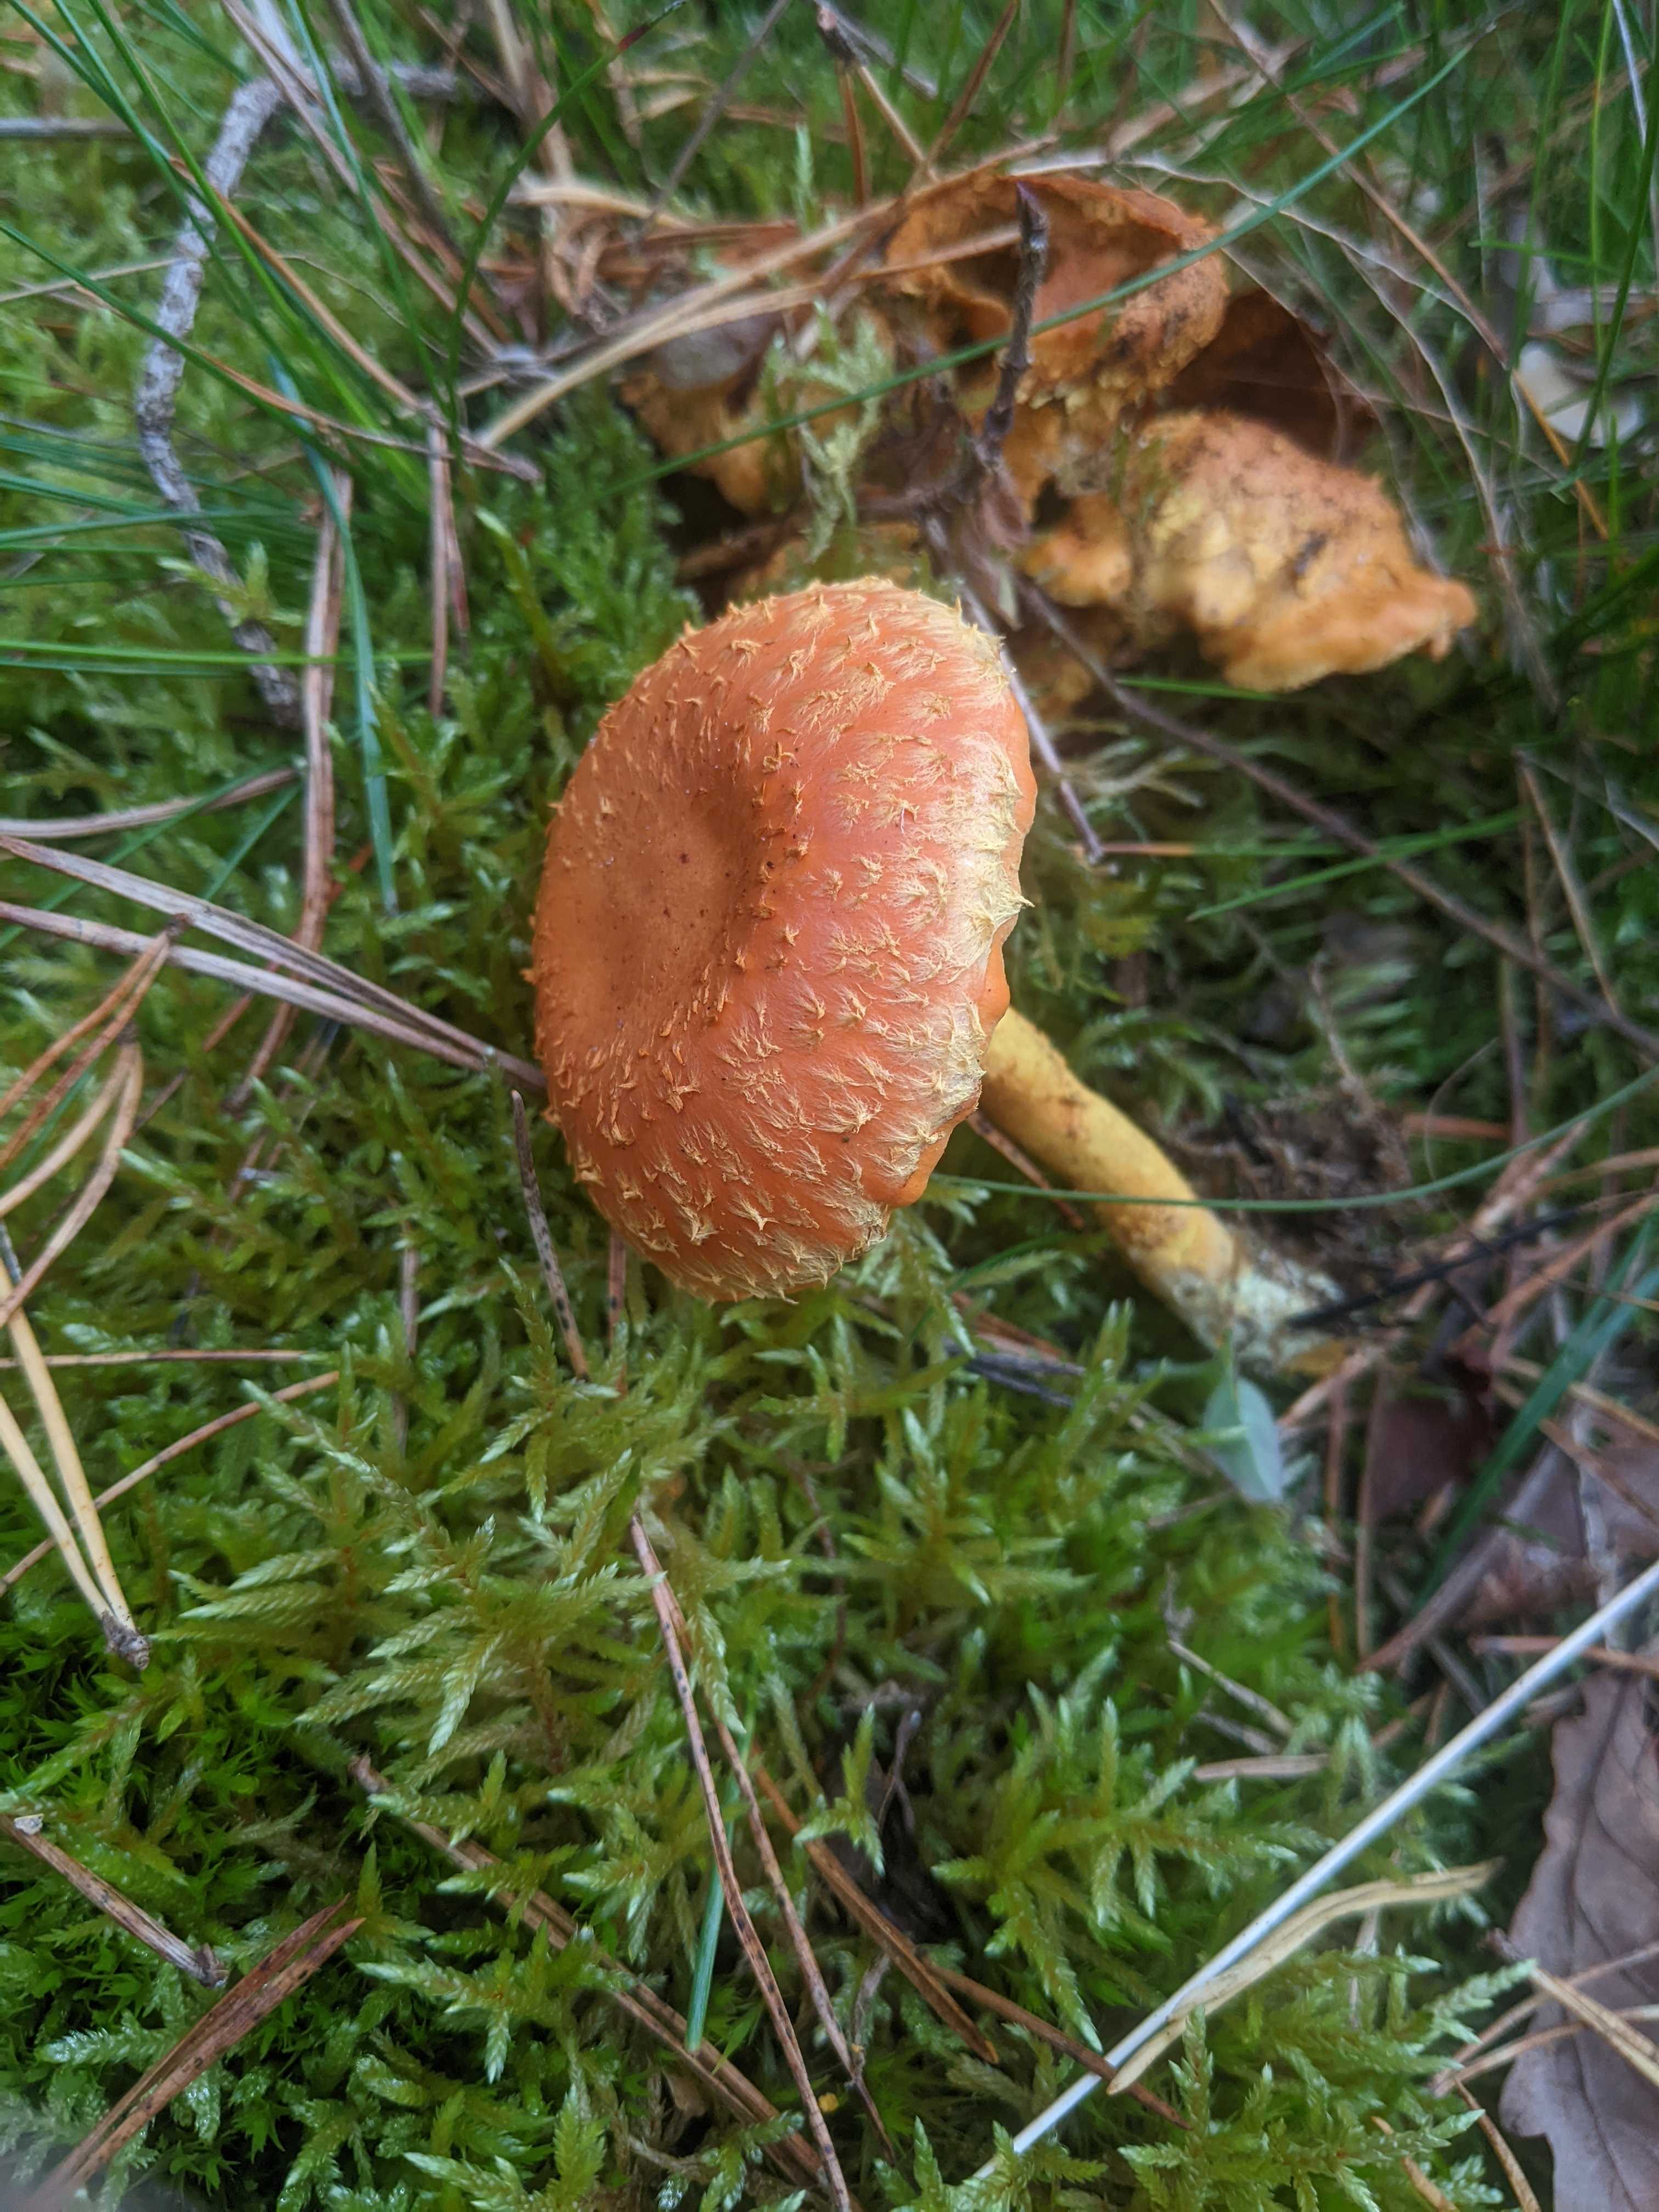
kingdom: Fungi
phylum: Basidiomycota
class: Agaricomycetes
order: Agaricales
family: Strophariaceae
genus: Pholiota
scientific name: Pholiota flammans
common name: flamme-skælhat
